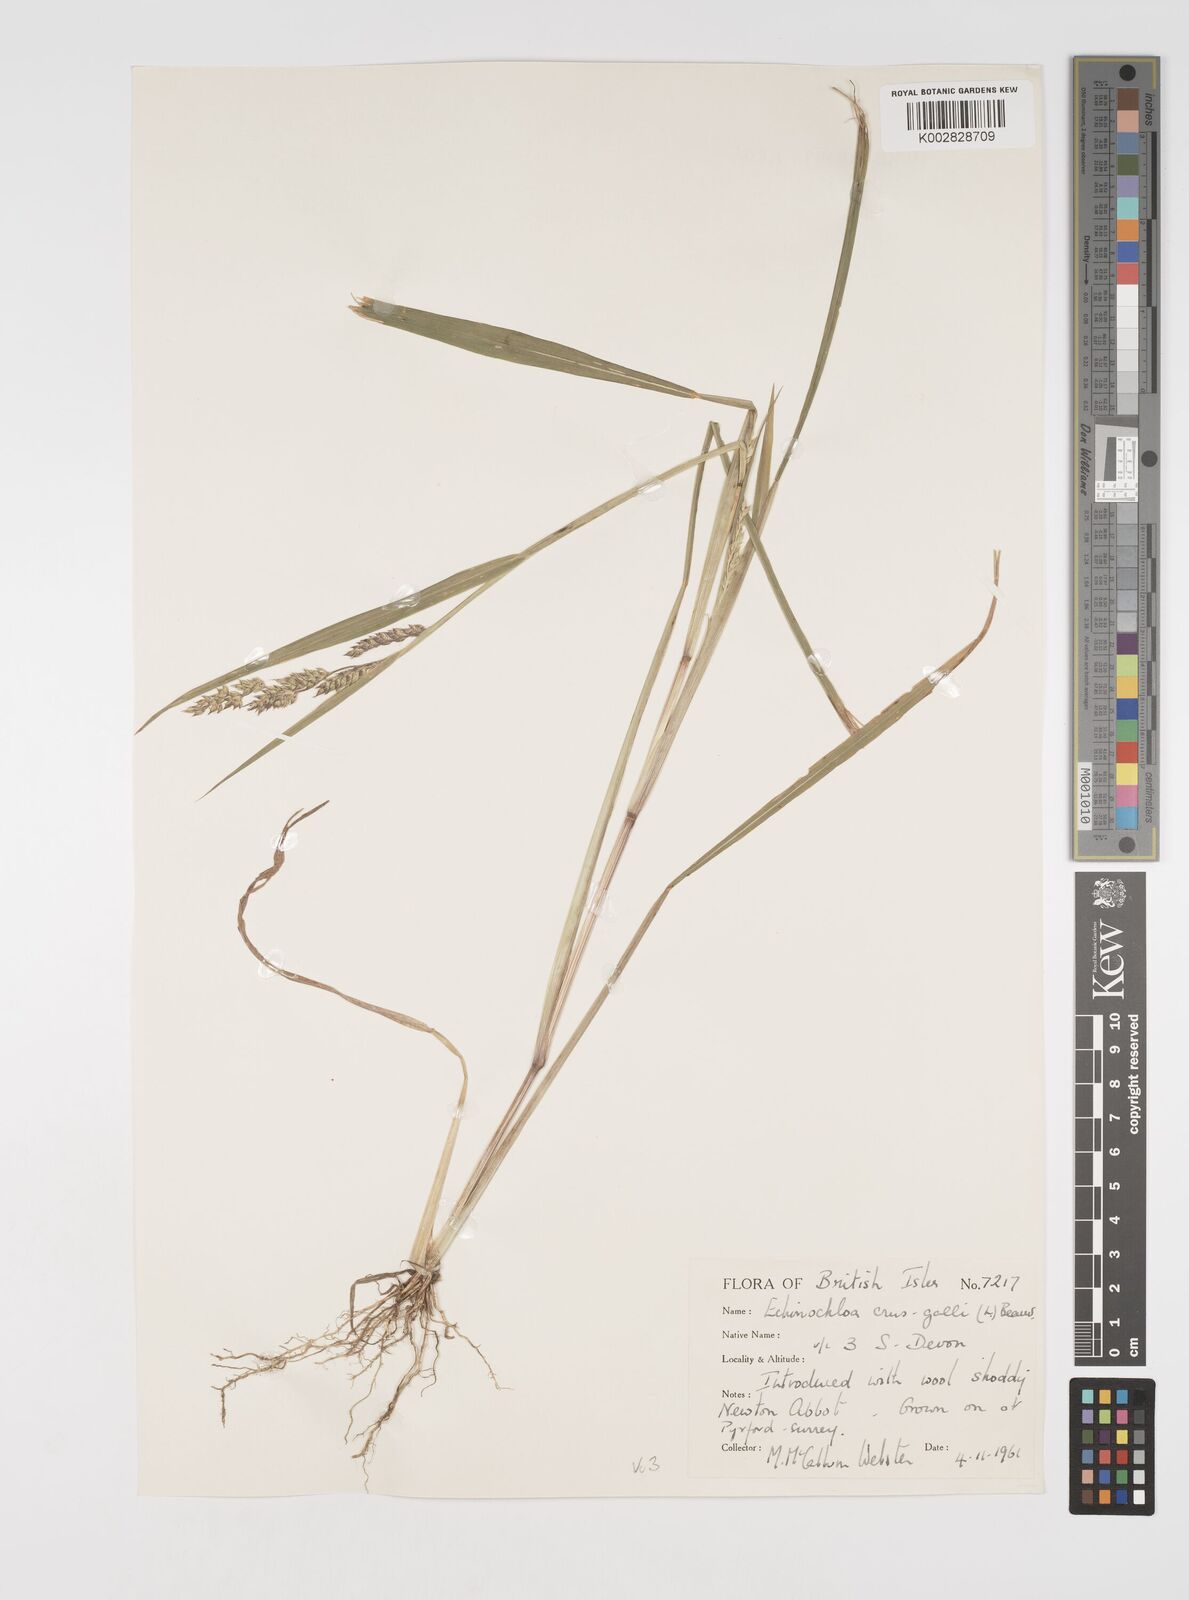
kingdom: Plantae
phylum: Tracheophyta
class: Liliopsida
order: Poales
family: Poaceae
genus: Echinochloa
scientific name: Echinochloa crus-galli
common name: Cockspur
